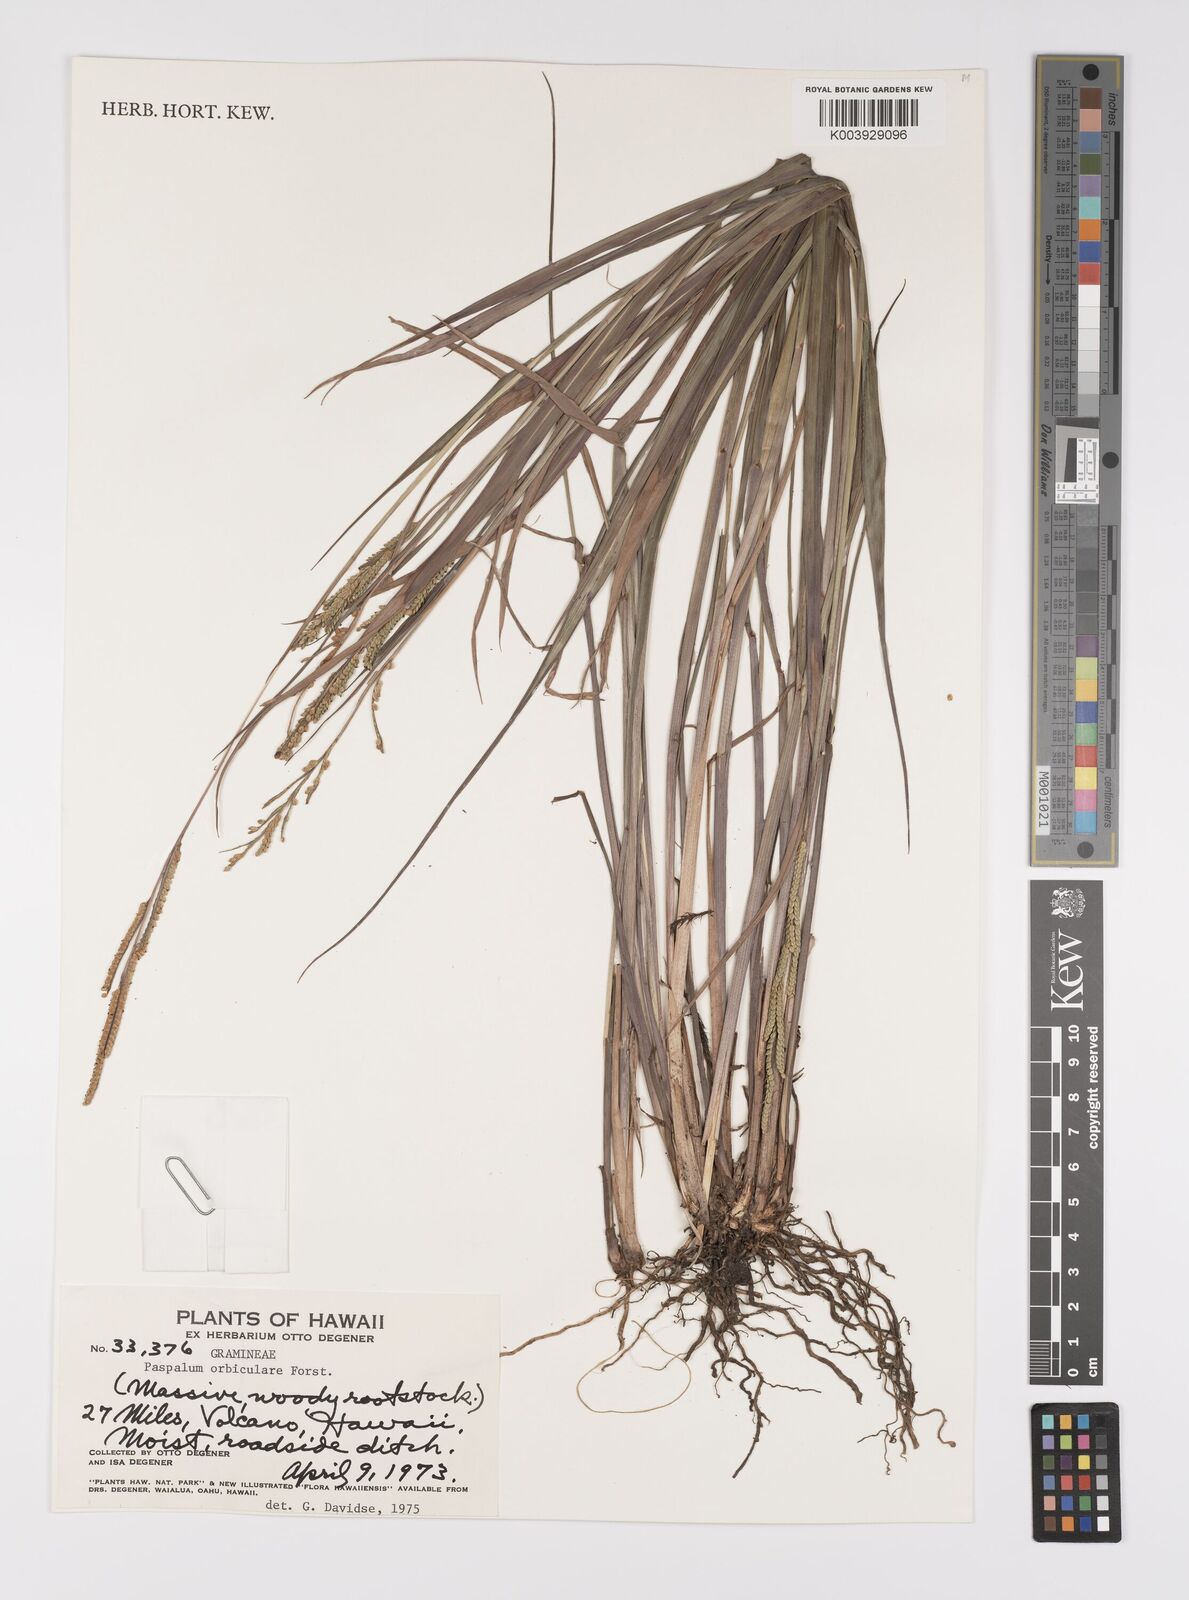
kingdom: Plantae
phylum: Tracheophyta
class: Liliopsida
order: Poales
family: Poaceae
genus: Paspalum
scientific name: Paspalum scrobiculatum
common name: Kodo millet
